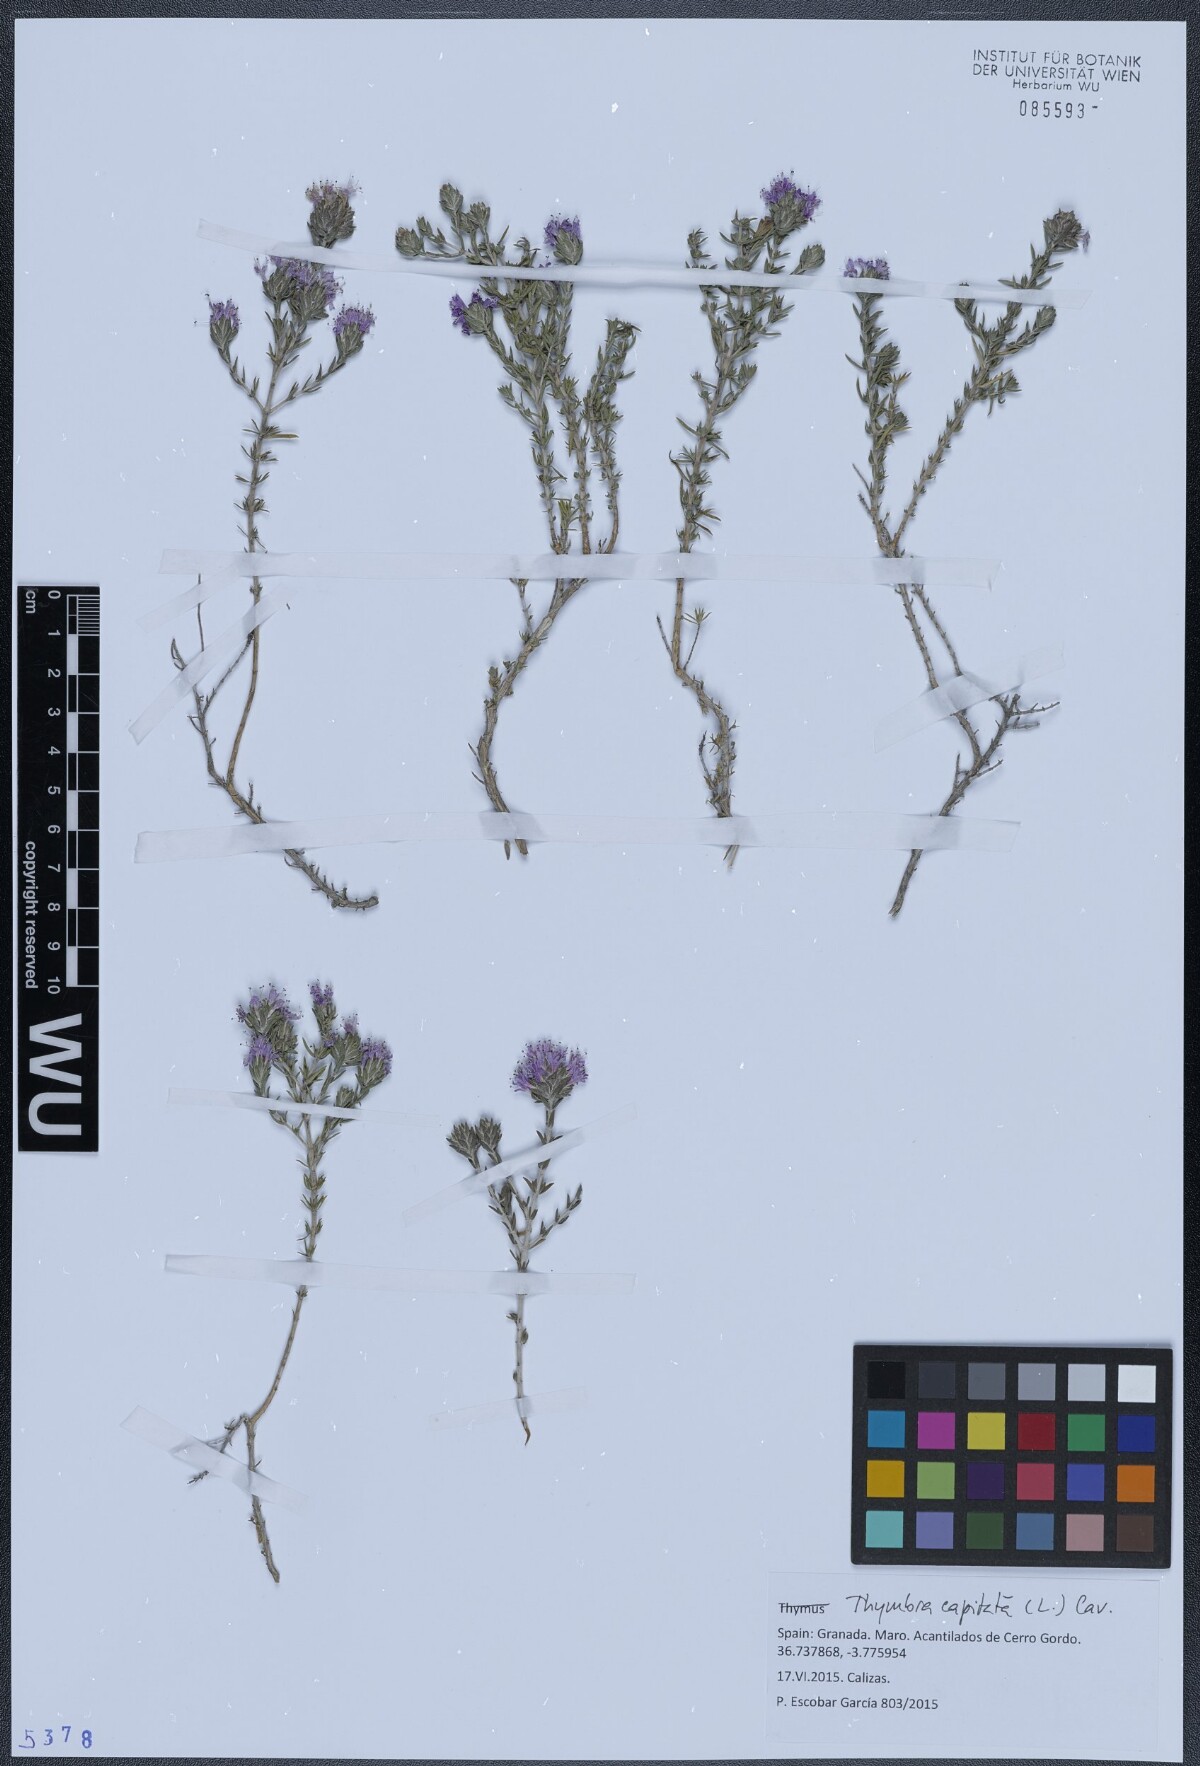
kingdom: Plantae
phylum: Tracheophyta
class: Magnoliopsida
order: Lamiales
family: Lamiaceae
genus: Thymbra
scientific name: Thymbra capitata
